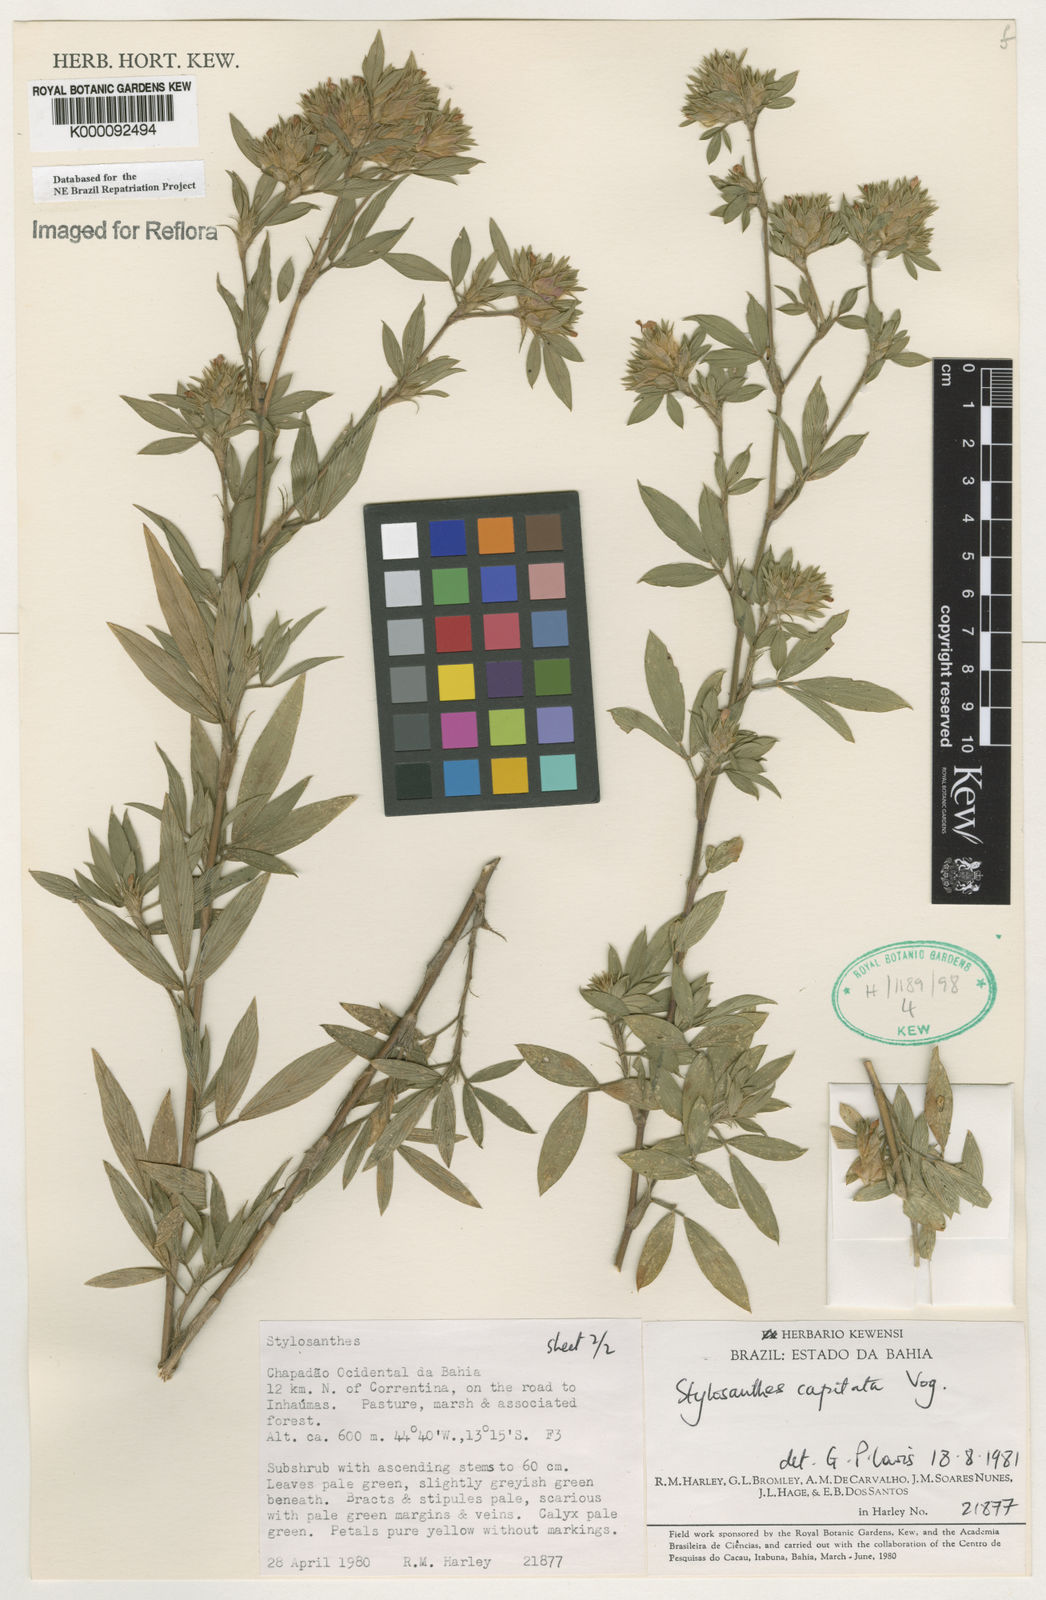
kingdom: Plantae
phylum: Tracheophyta
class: Magnoliopsida
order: Fabales
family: Fabaceae
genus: Stylosanthes
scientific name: Stylosanthes capitata
